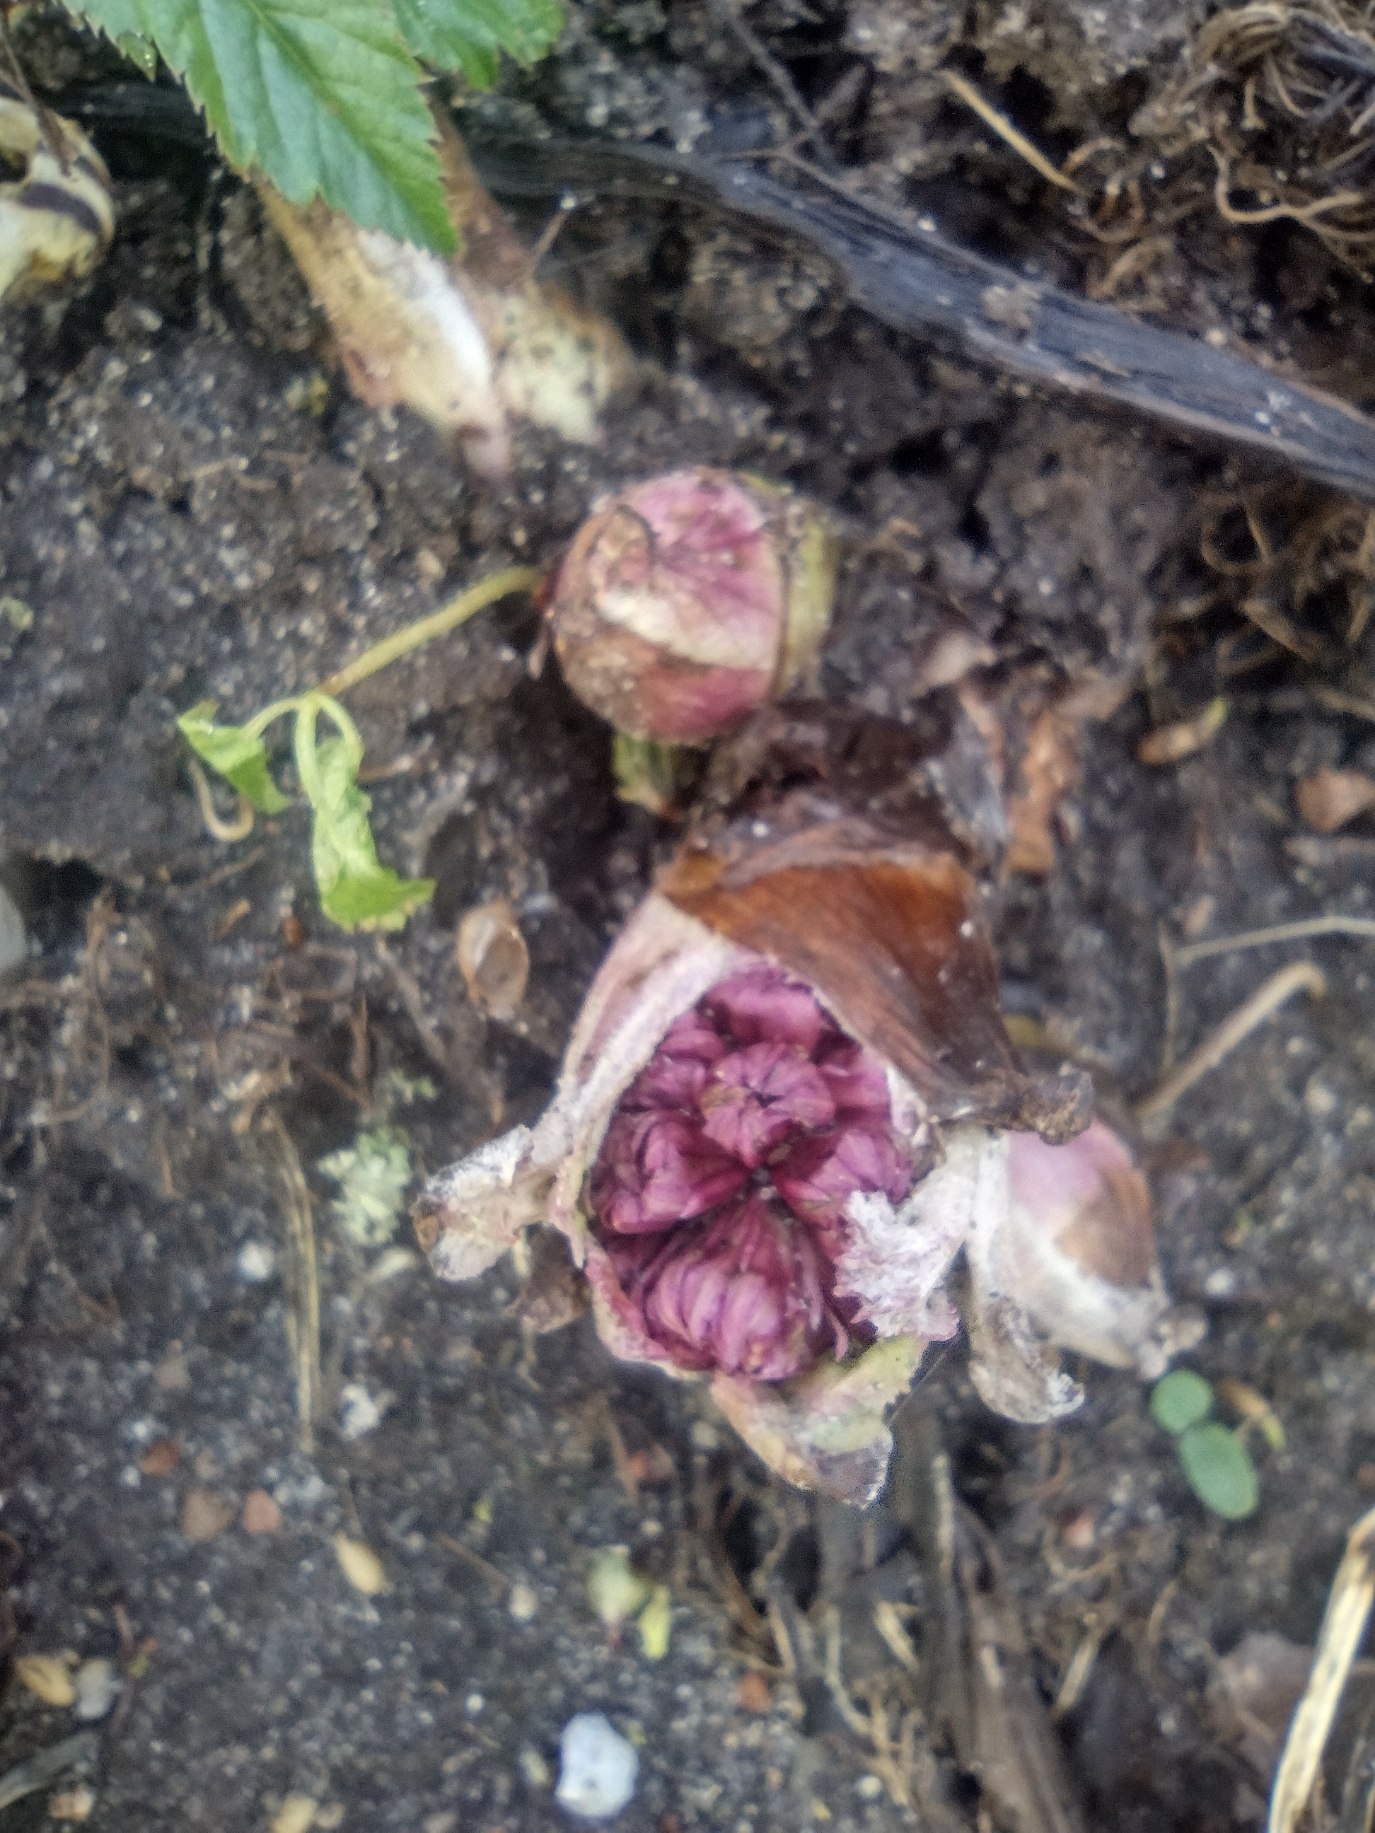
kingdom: Plantae
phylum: Tracheophyta
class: Magnoliopsida
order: Asterales
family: Asteraceae
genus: Petasites
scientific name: Petasites hybridus
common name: Rød hestehov
